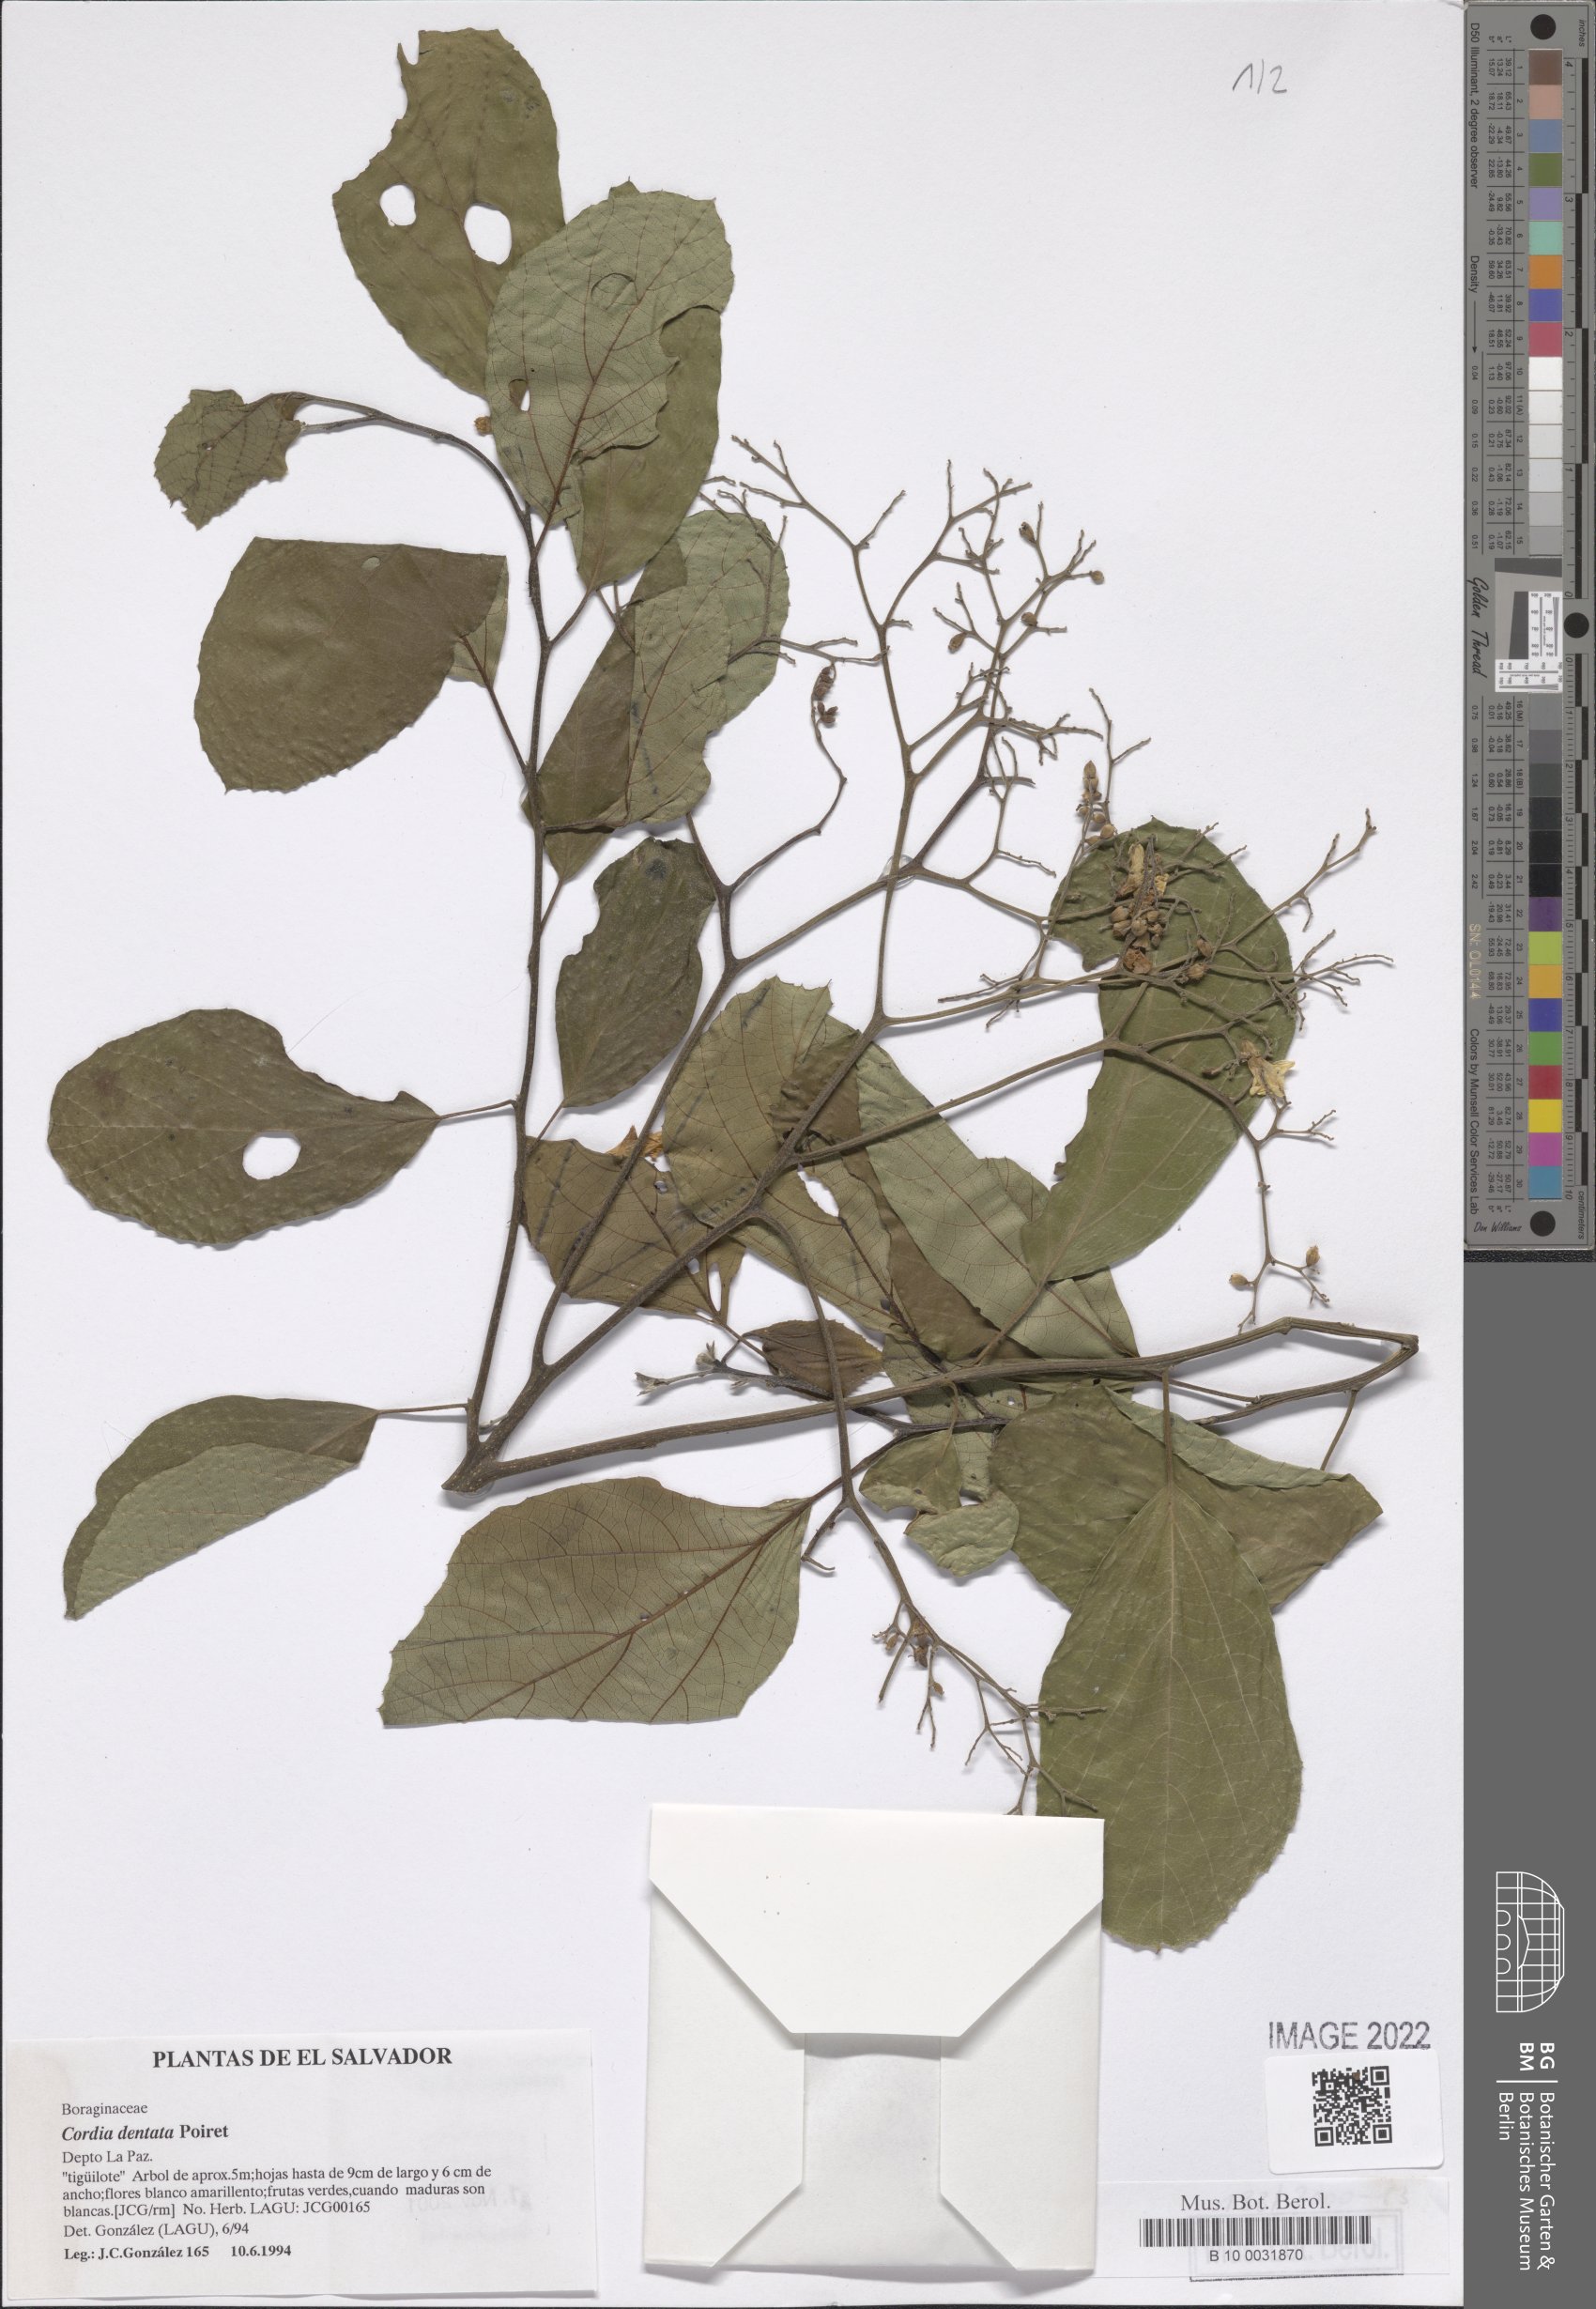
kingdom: Plantae
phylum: Tracheophyta
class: Magnoliopsida
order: Boraginales
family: Cordiaceae
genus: Cordia
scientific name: Cordia dentata
